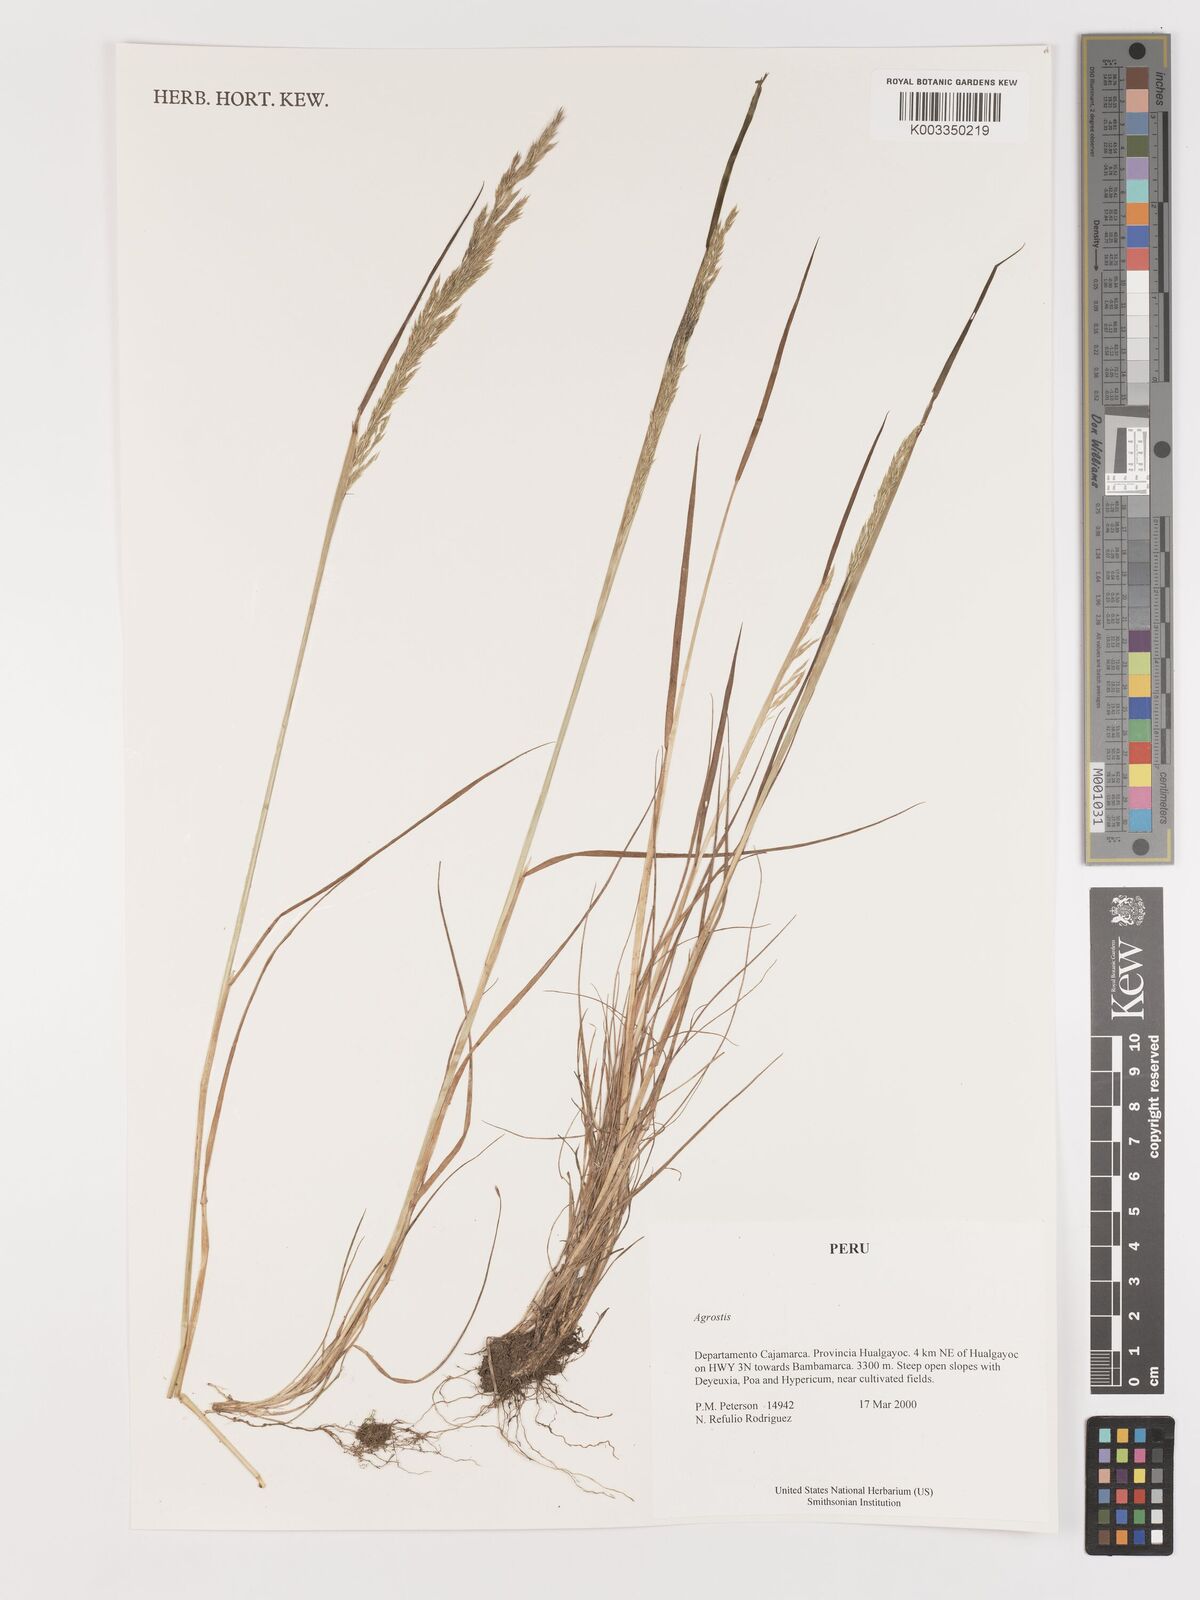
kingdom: Plantae
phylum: Tracheophyta
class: Liliopsida
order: Poales
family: Poaceae
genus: Agrostis
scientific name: Agrostis
